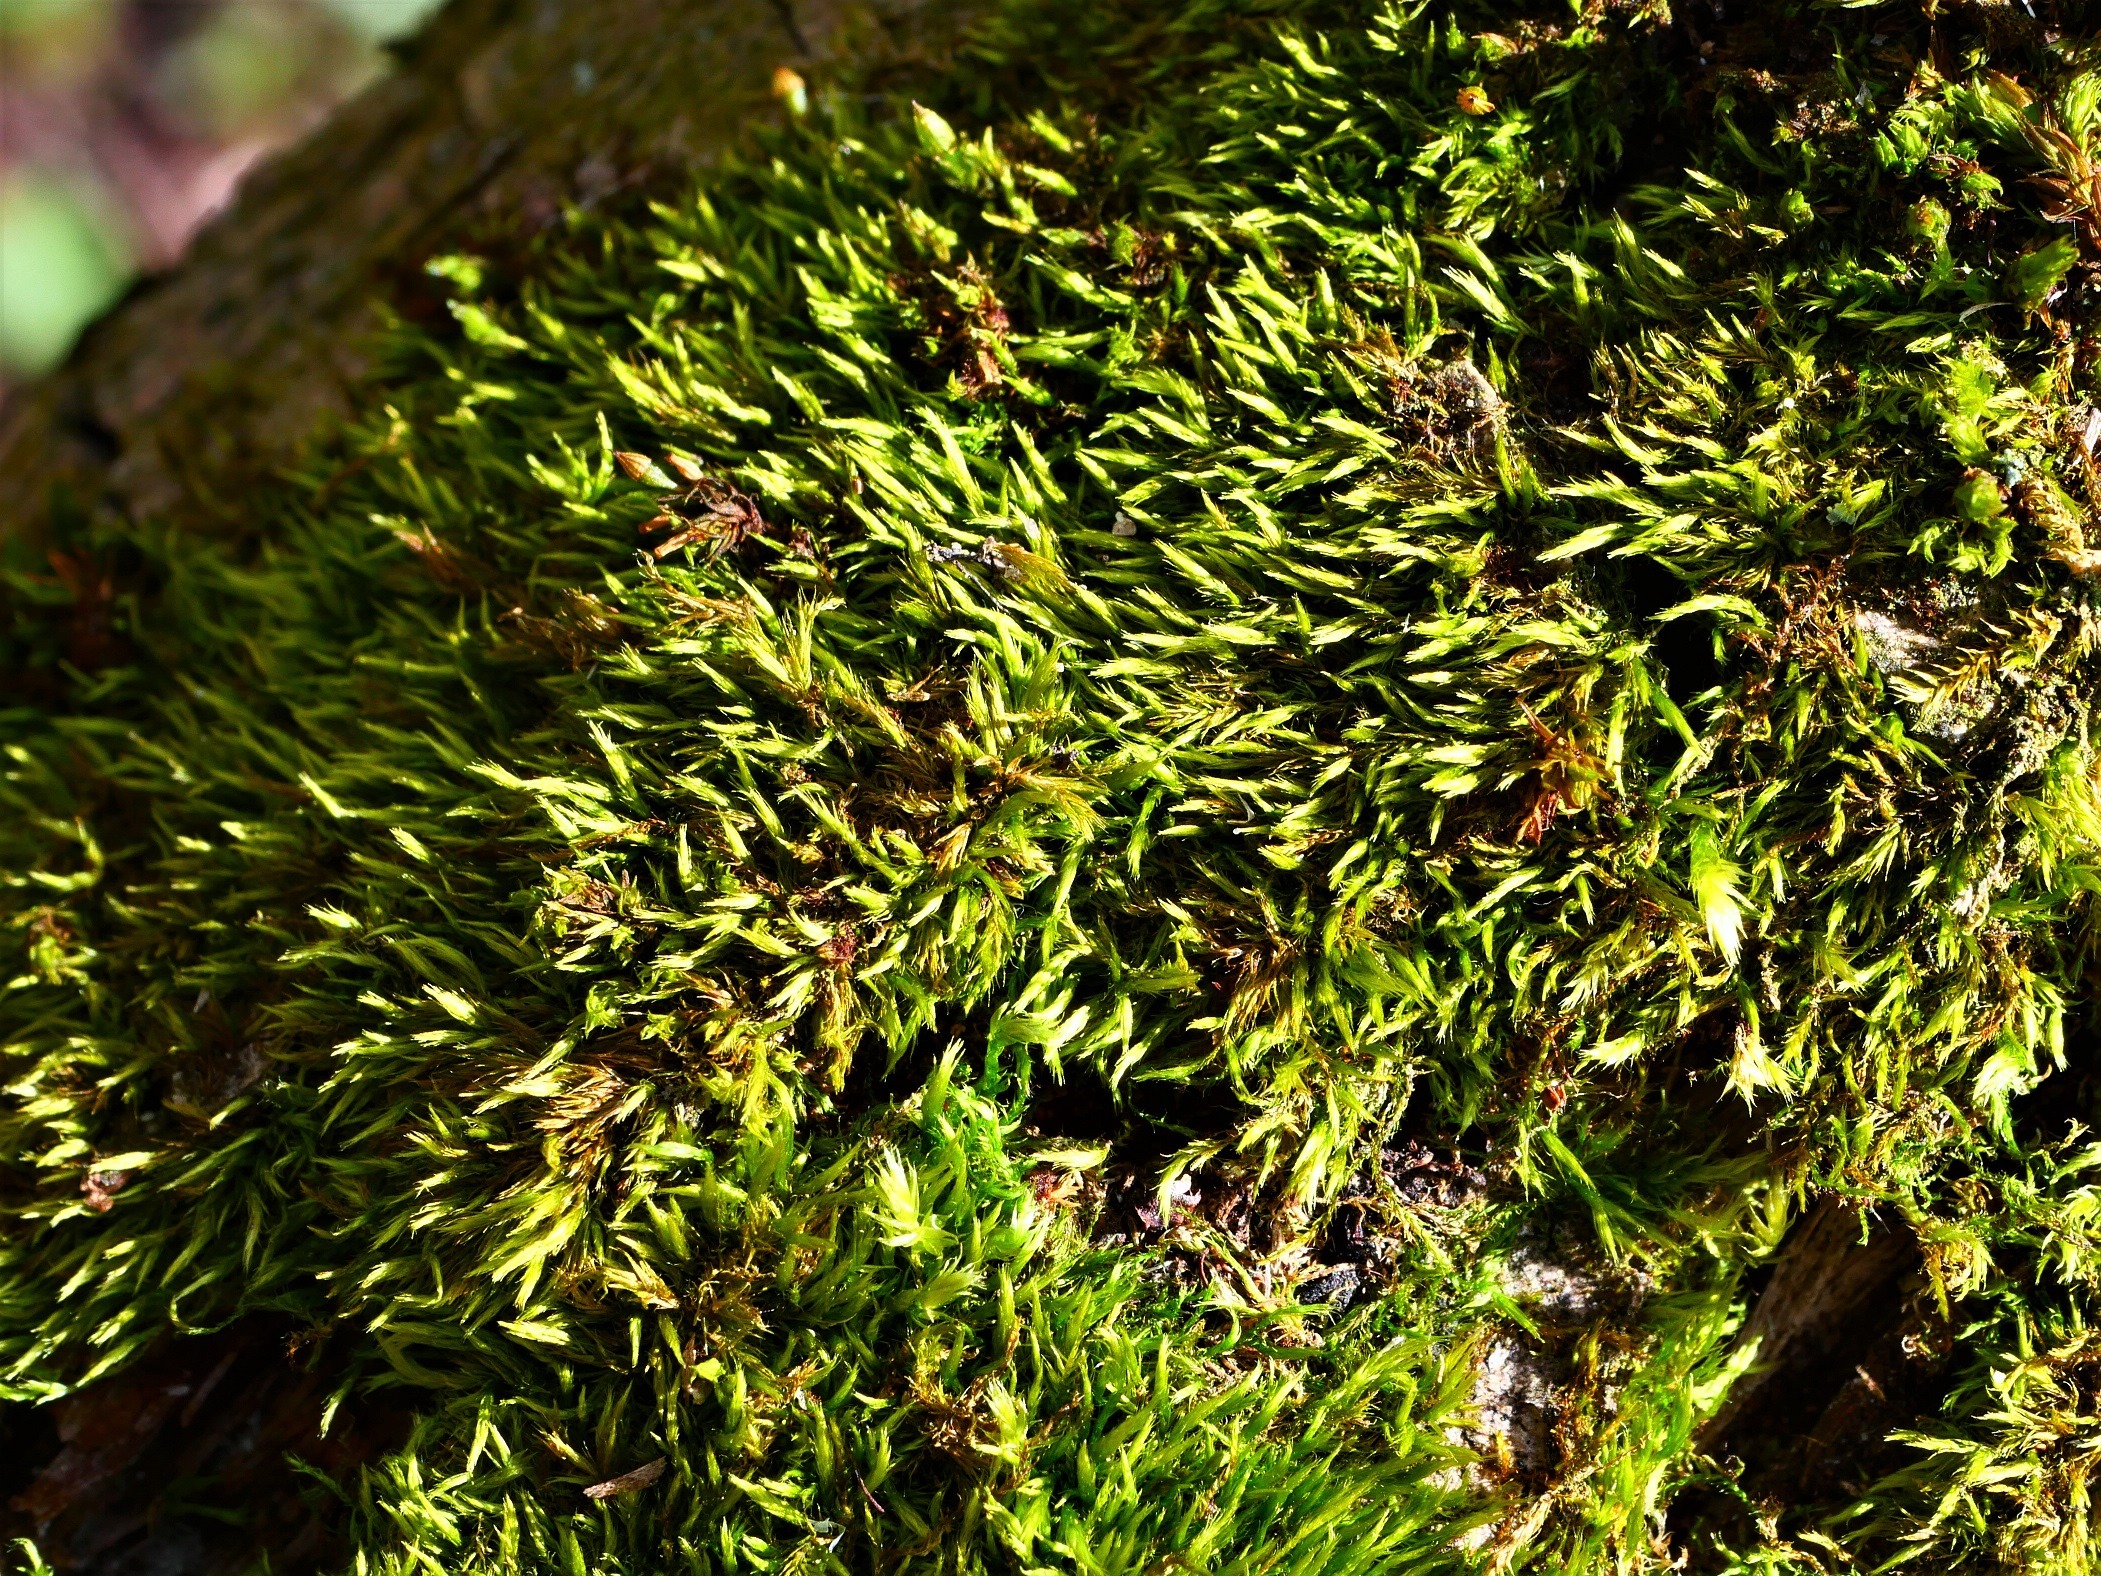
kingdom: Plantae
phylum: Bryophyta
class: Bryopsida
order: Hypnales
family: Brachytheciaceae
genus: Sciuro-hypnum
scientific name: Sciuro-hypnum populeum
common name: Park-kortkapsel
